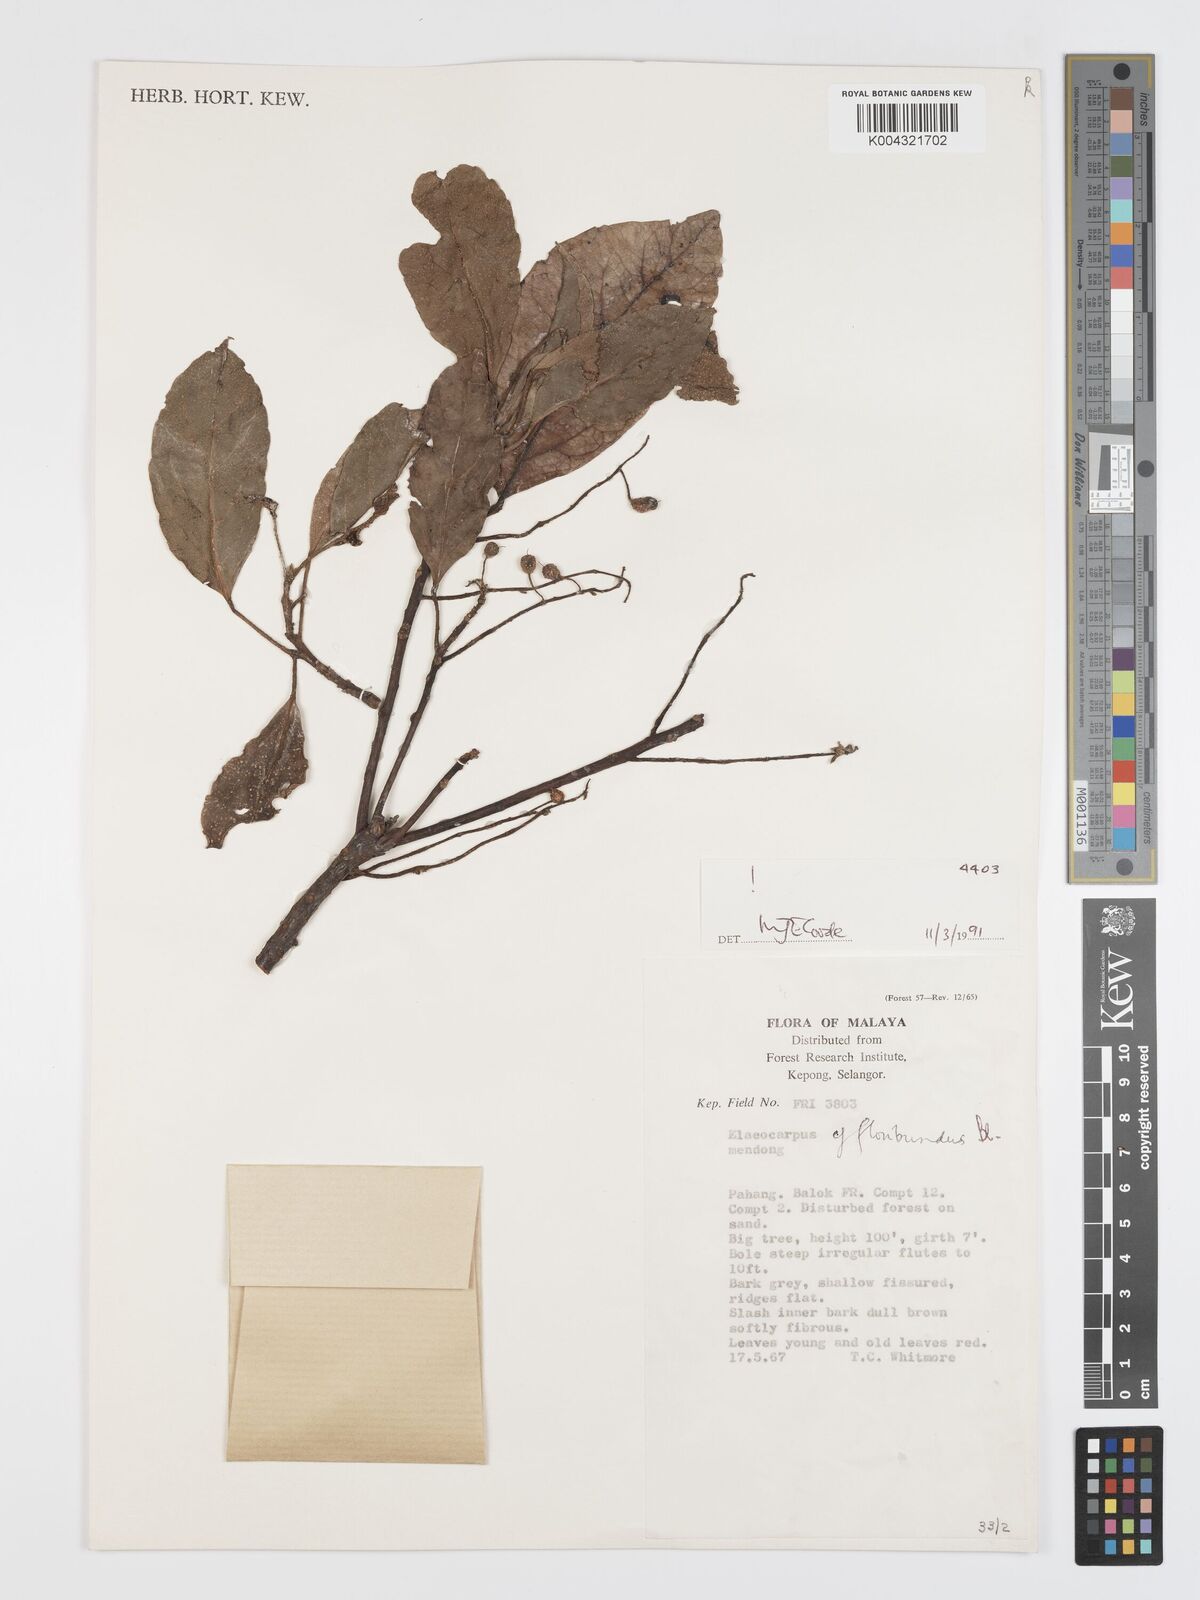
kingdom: Plantae
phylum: Tracheophyta
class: Magnoliopsida
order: Oxalidales
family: Elaeocarpaceae
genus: Elaeocarpus
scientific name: Elaeocarpus floribundus
